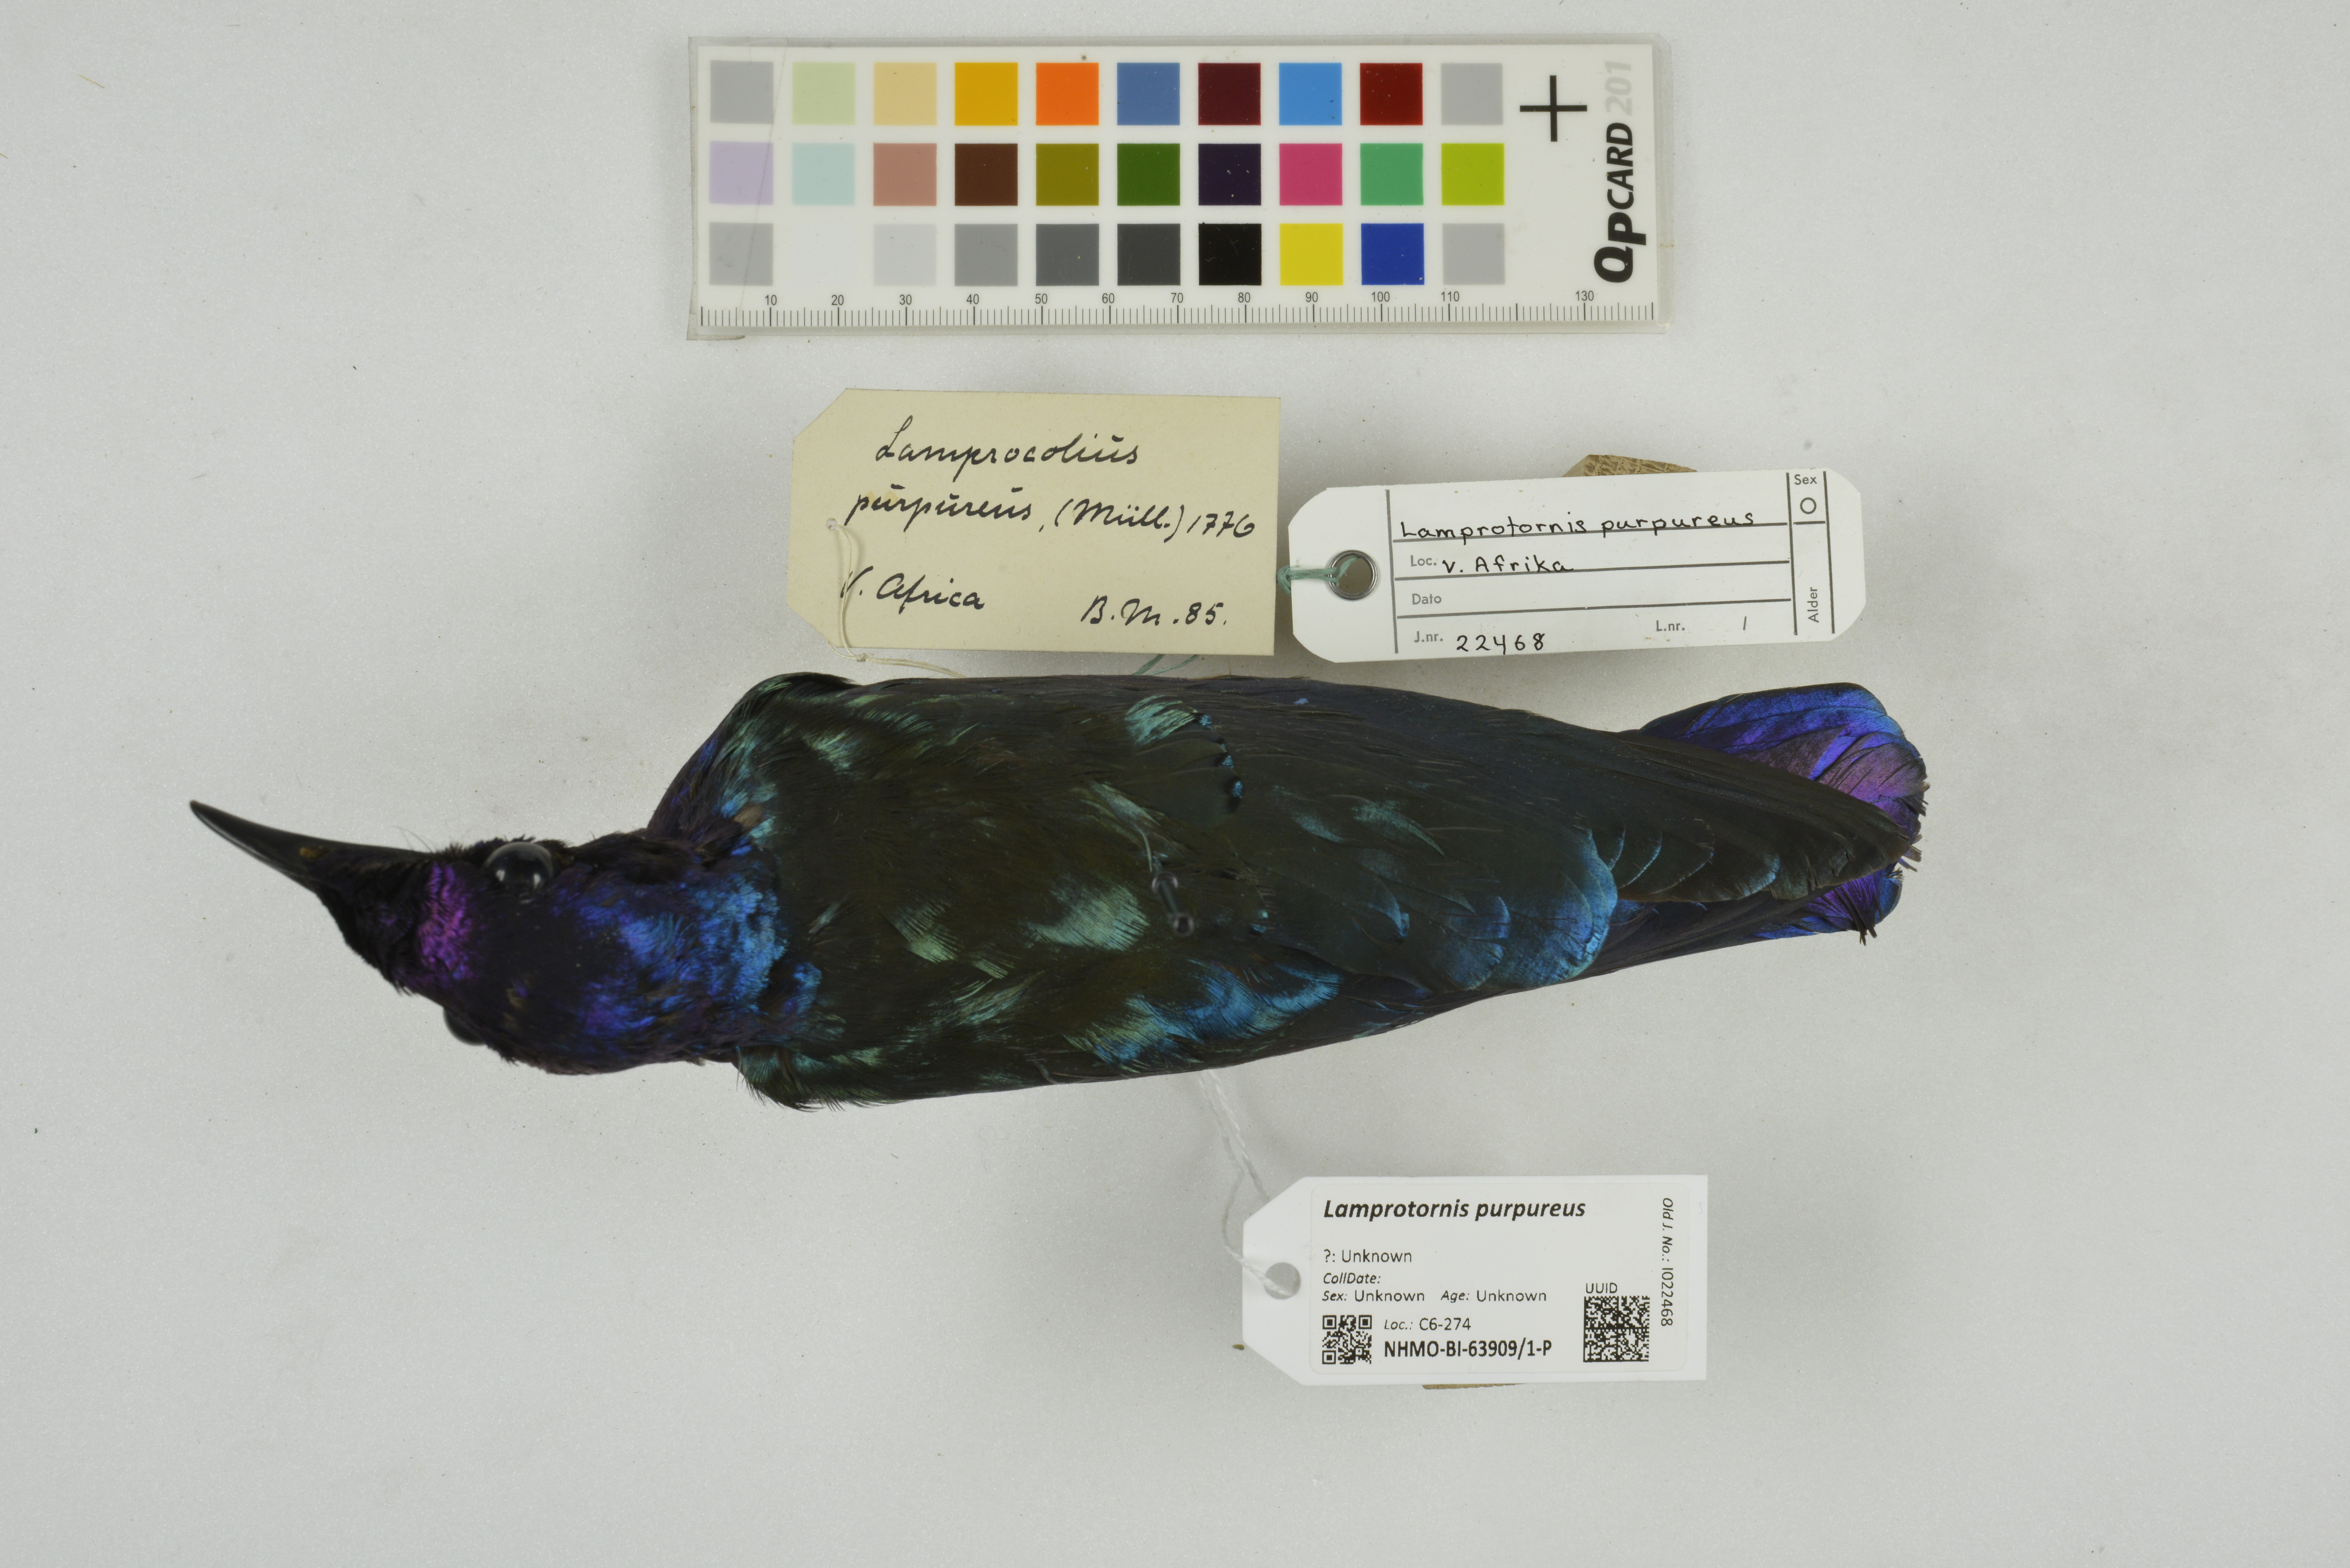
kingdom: Animalia
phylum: Chordata
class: Aves
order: Passeriformes
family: Sturnidae
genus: Lamprotornis
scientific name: Lamprotornis purpureus
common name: Purple starling
